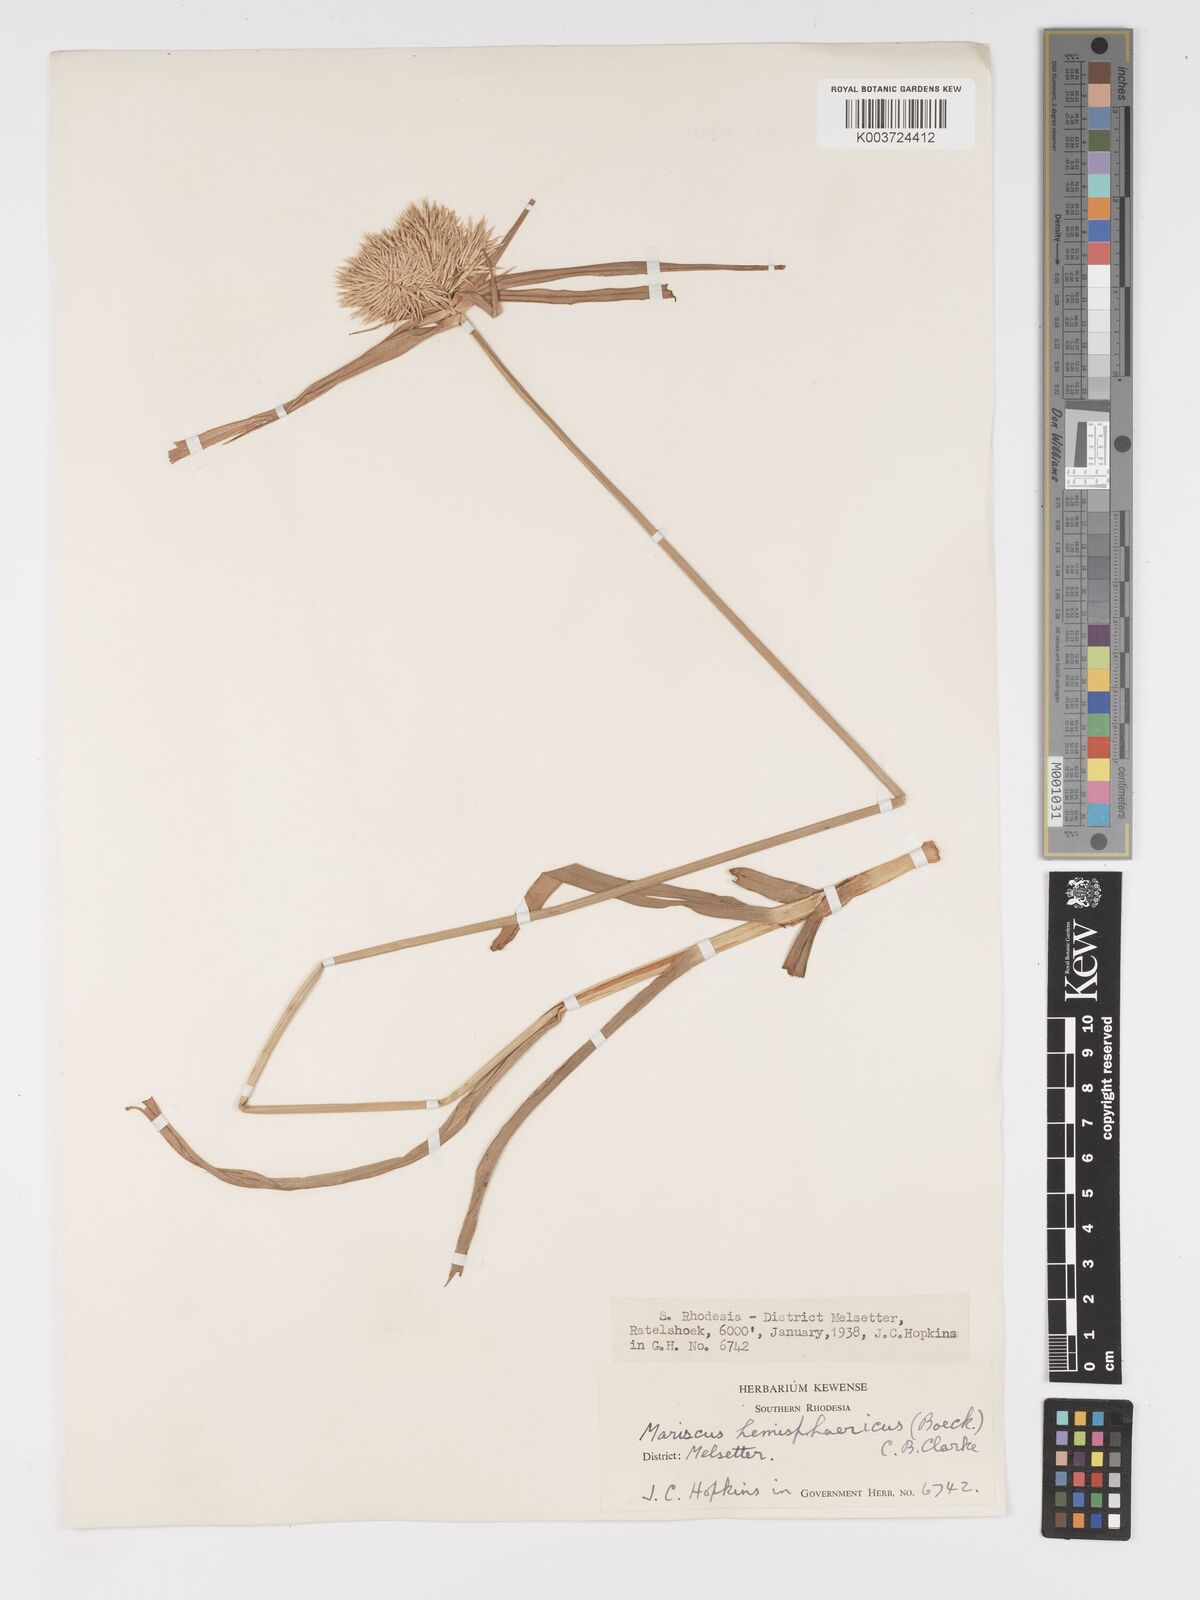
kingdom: Plantae
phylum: Tracheophyta
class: Liliopsida
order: Poales
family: Cyperaceae
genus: Cyperus
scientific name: Cyperus hemisphaericus
